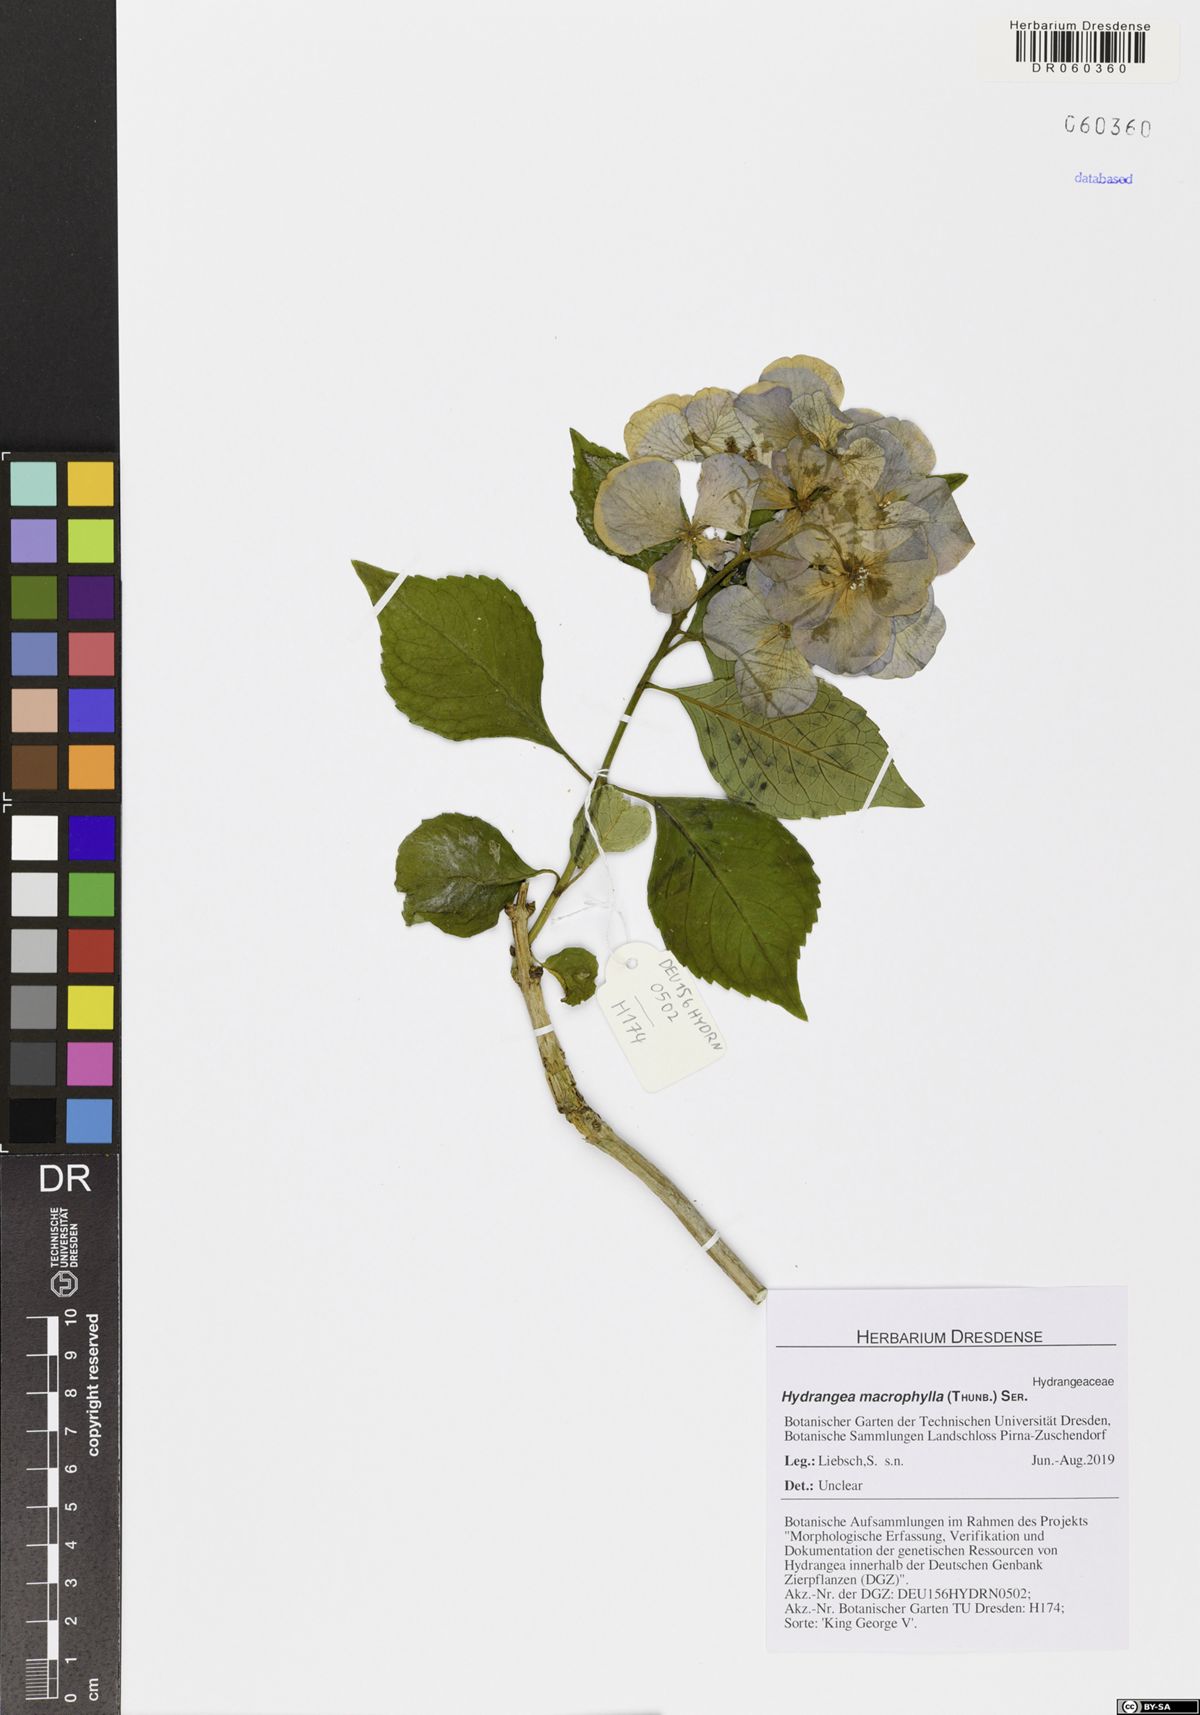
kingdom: Plantae
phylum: Tracheophyta
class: Magnoliopsida
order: Cornales
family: Hydrangeaceae
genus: Hydrangea
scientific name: Hydrangea macrophylla
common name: Hydrangea
